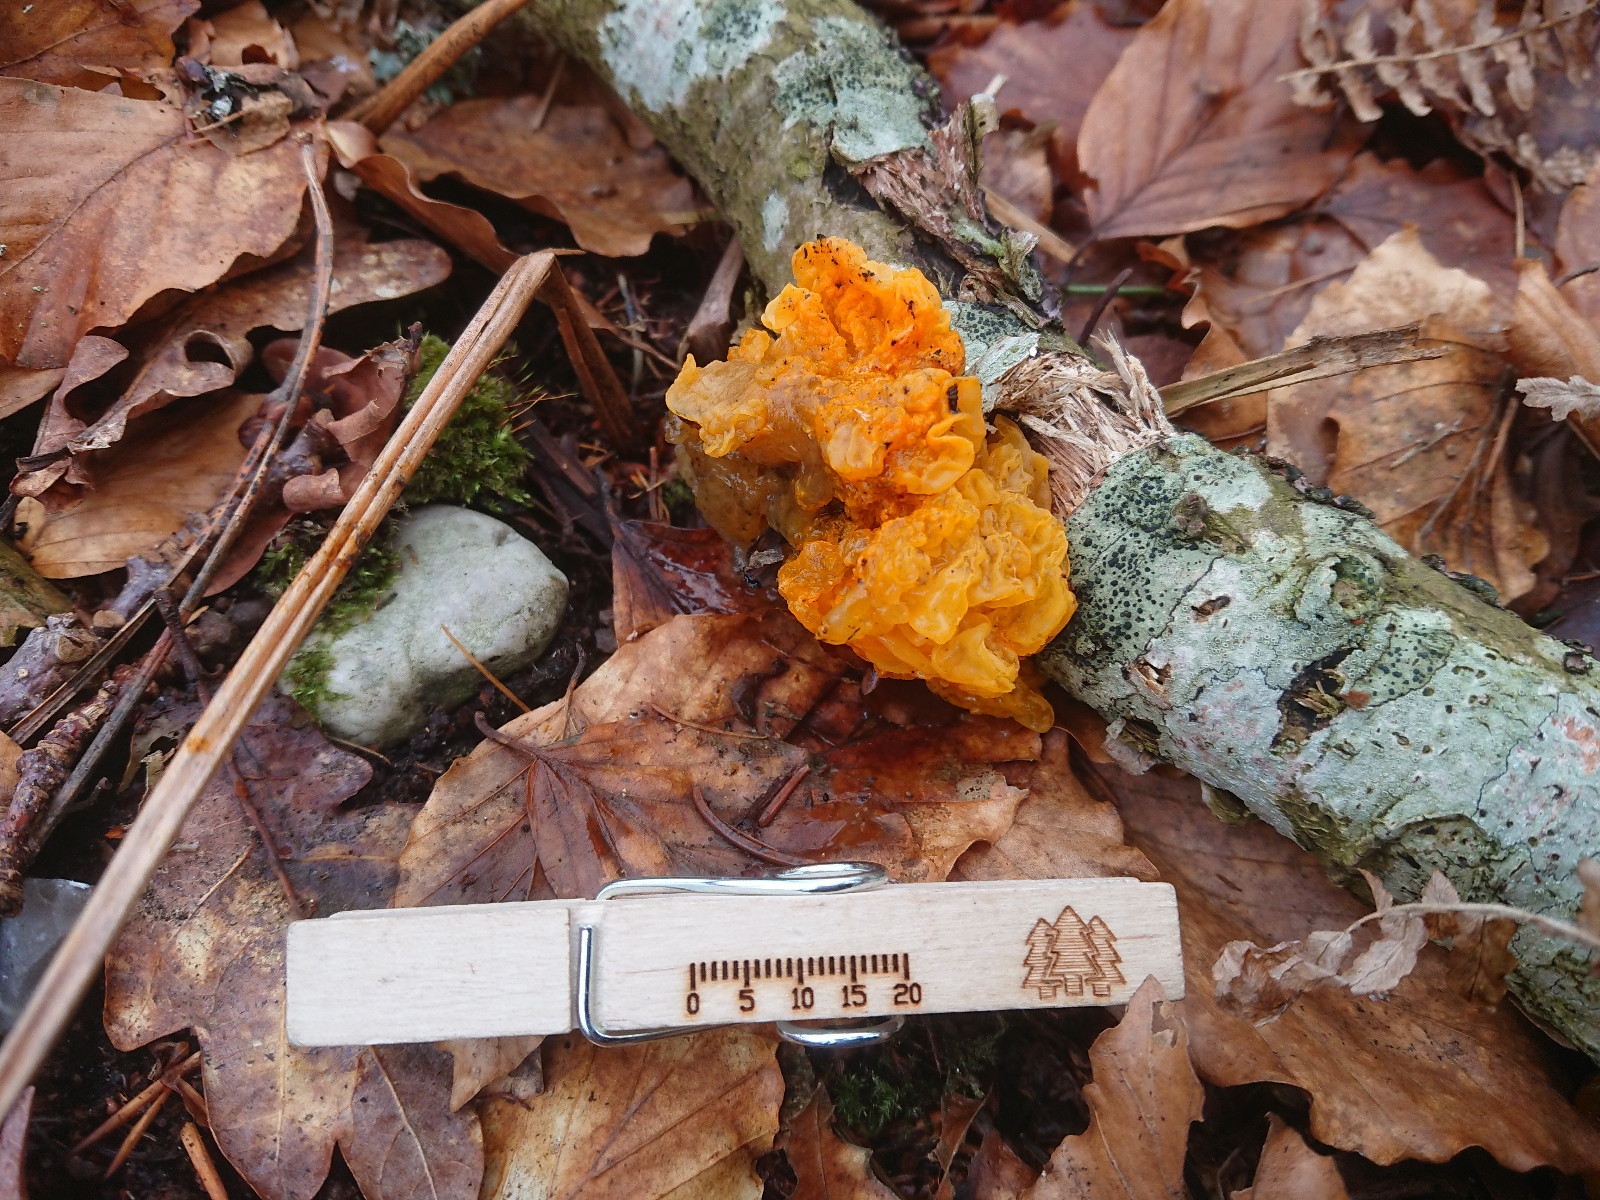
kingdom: Fungi
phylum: Basidiomycota
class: Tremellomycetes
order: Tremellales
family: Tremellaceae
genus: Tremella
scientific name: Tremella mesenterica
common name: gul bævresvamp
